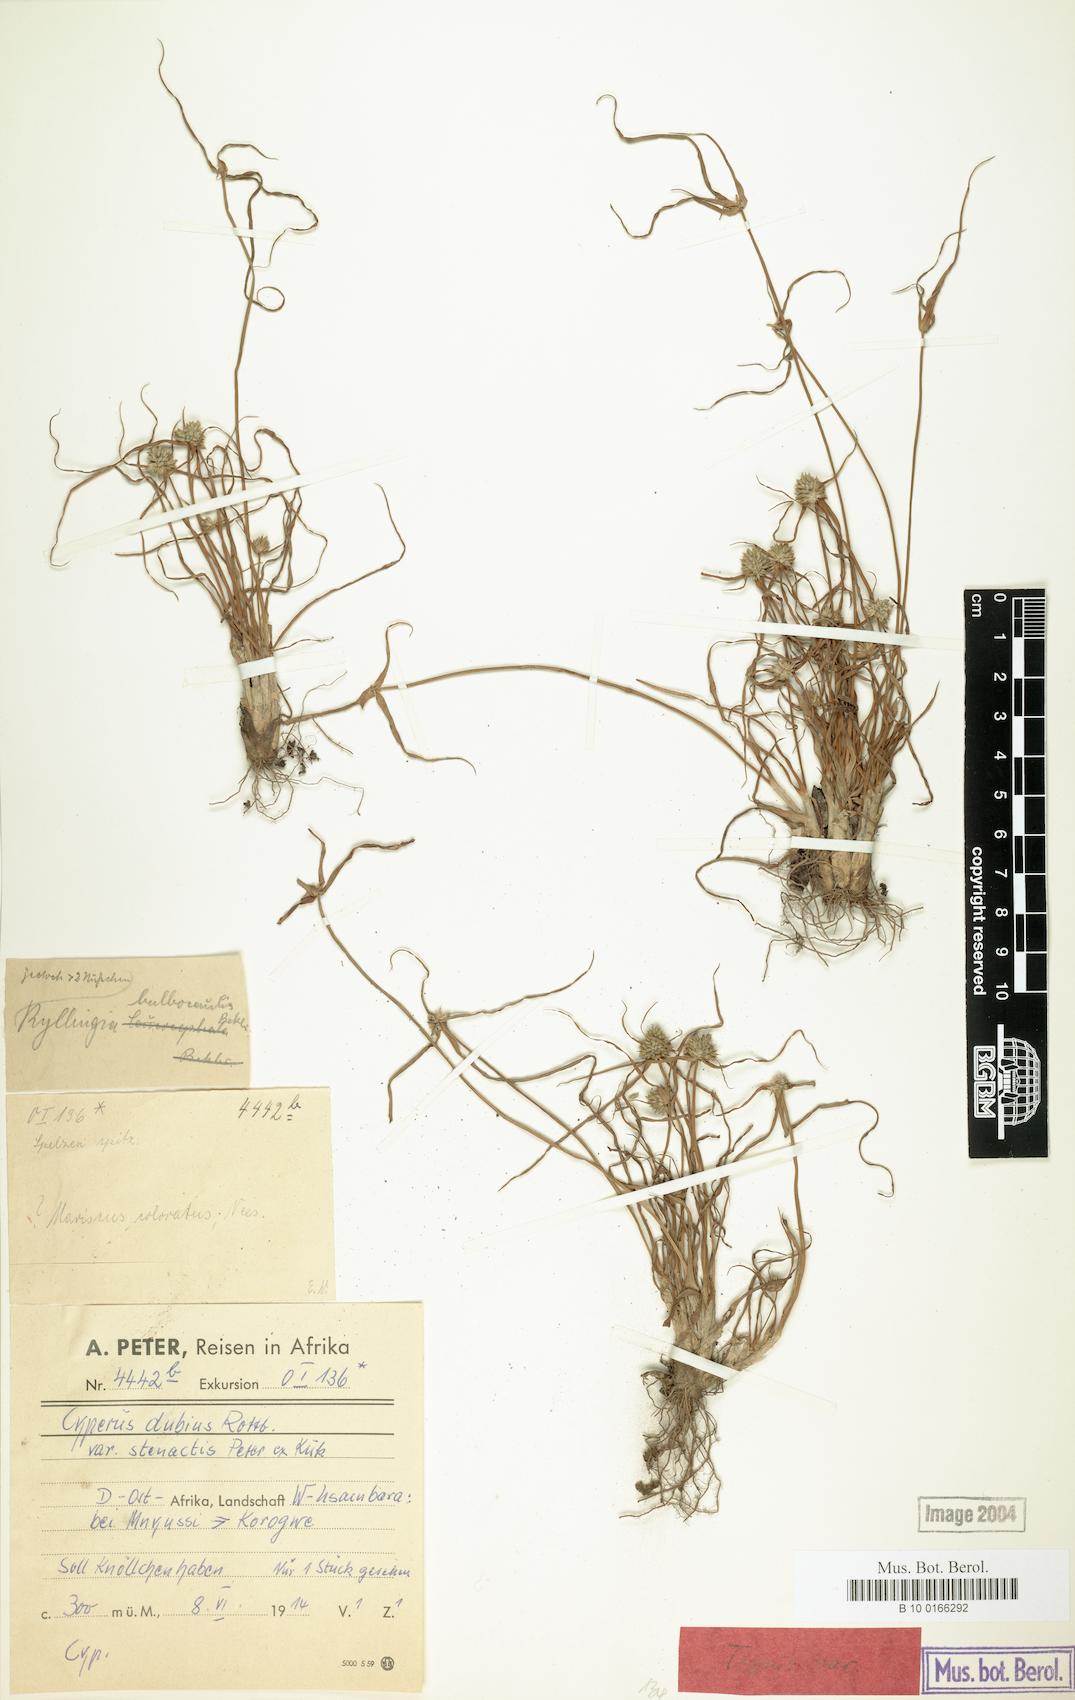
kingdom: Plantae
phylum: Tracheophyta
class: Liliopsida
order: Poales
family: Cyperaceae
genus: Cyperus
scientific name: Cyperus dubius
